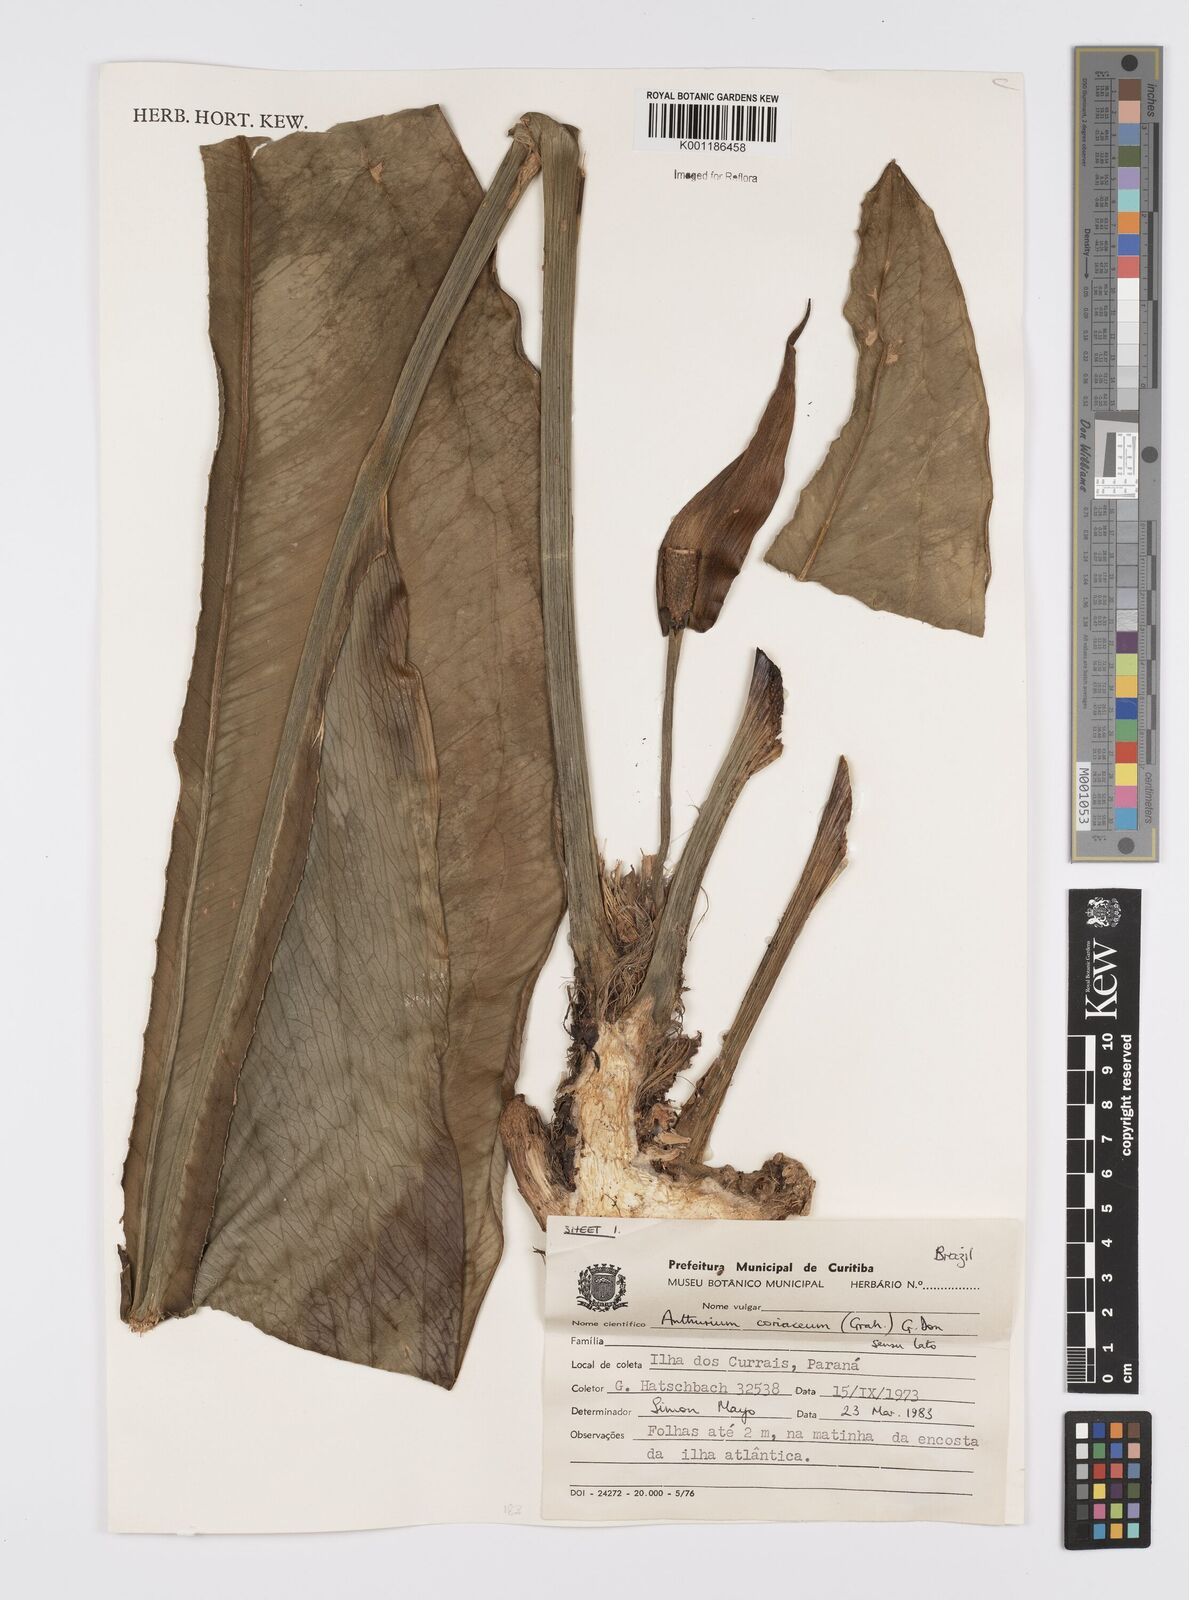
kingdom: Plantae
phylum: Tracheophyta
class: Liliopsida
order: Alismatales
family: Araceae
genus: Anthurium
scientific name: Anthurium coriaceum
